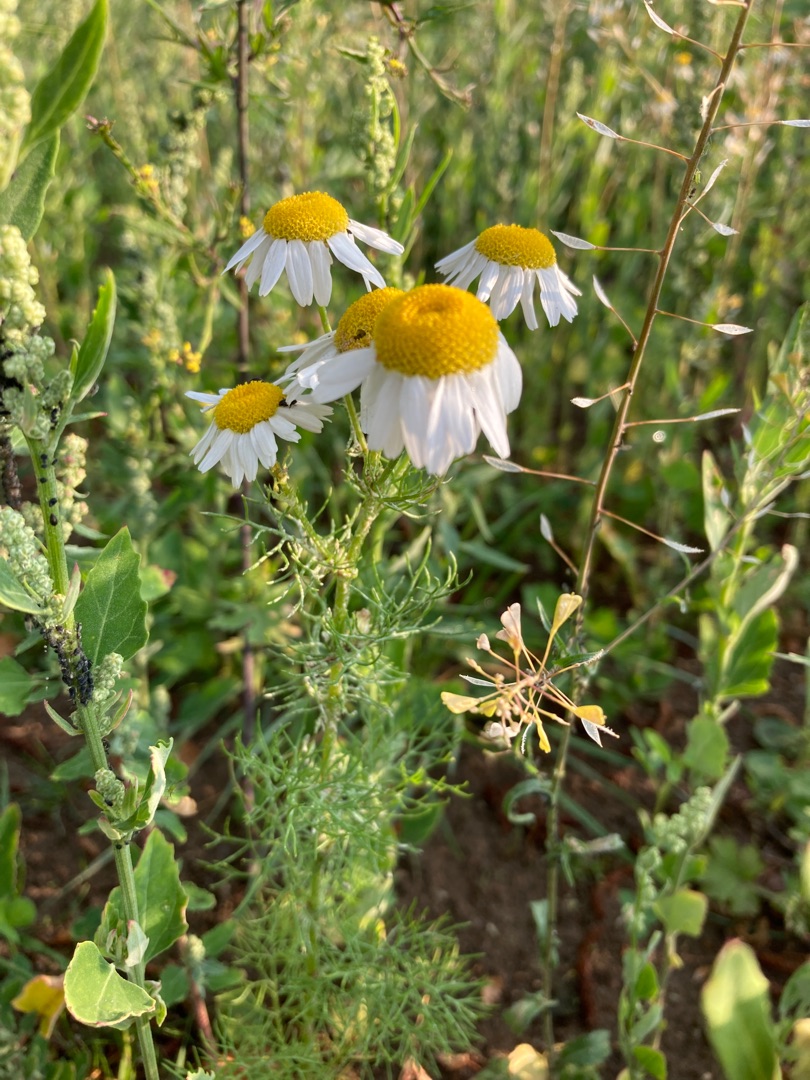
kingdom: Plantae
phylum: Tracheophyta
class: Magnoliopsida
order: Asterales
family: Asteraceae
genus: Matricaria
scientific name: Matricaria chamomilla
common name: Vellugtende kamille
